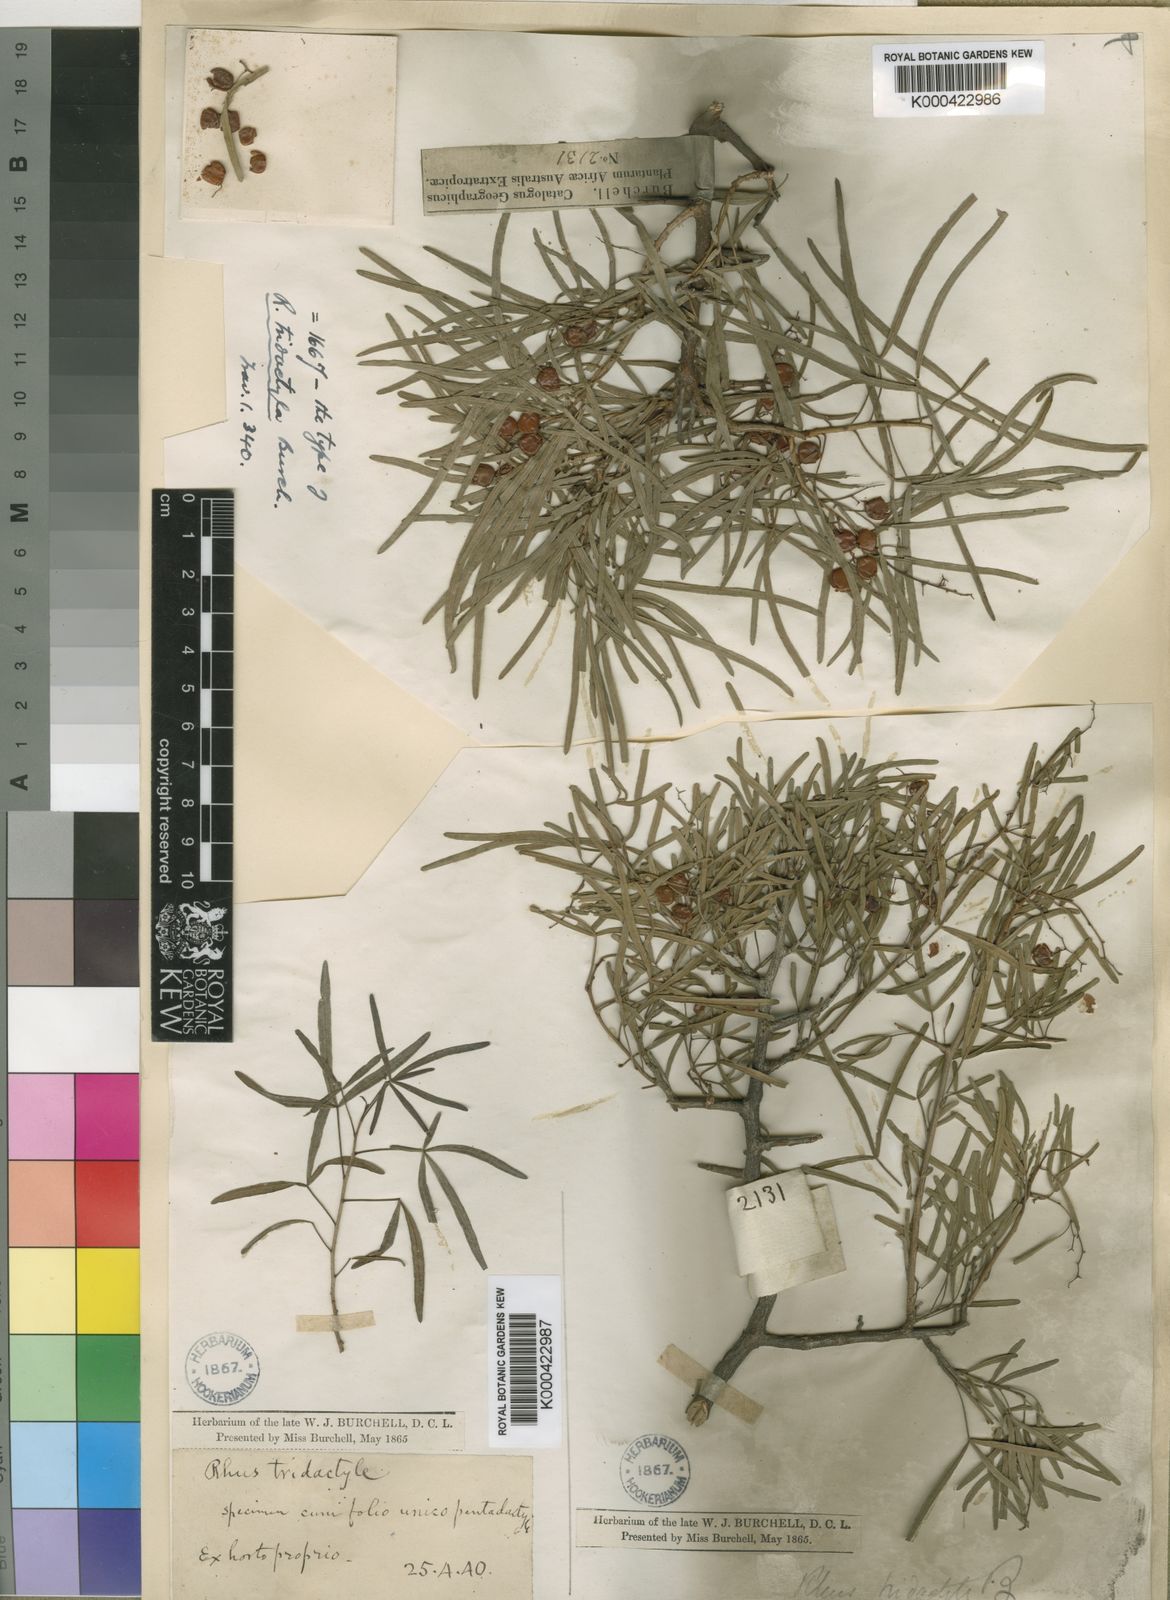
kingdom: Plantae
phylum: Tracheophyta
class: Magnoliopsida
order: Sapindales
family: Anacardiaceae
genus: Searsia
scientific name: Searsia ciliata
